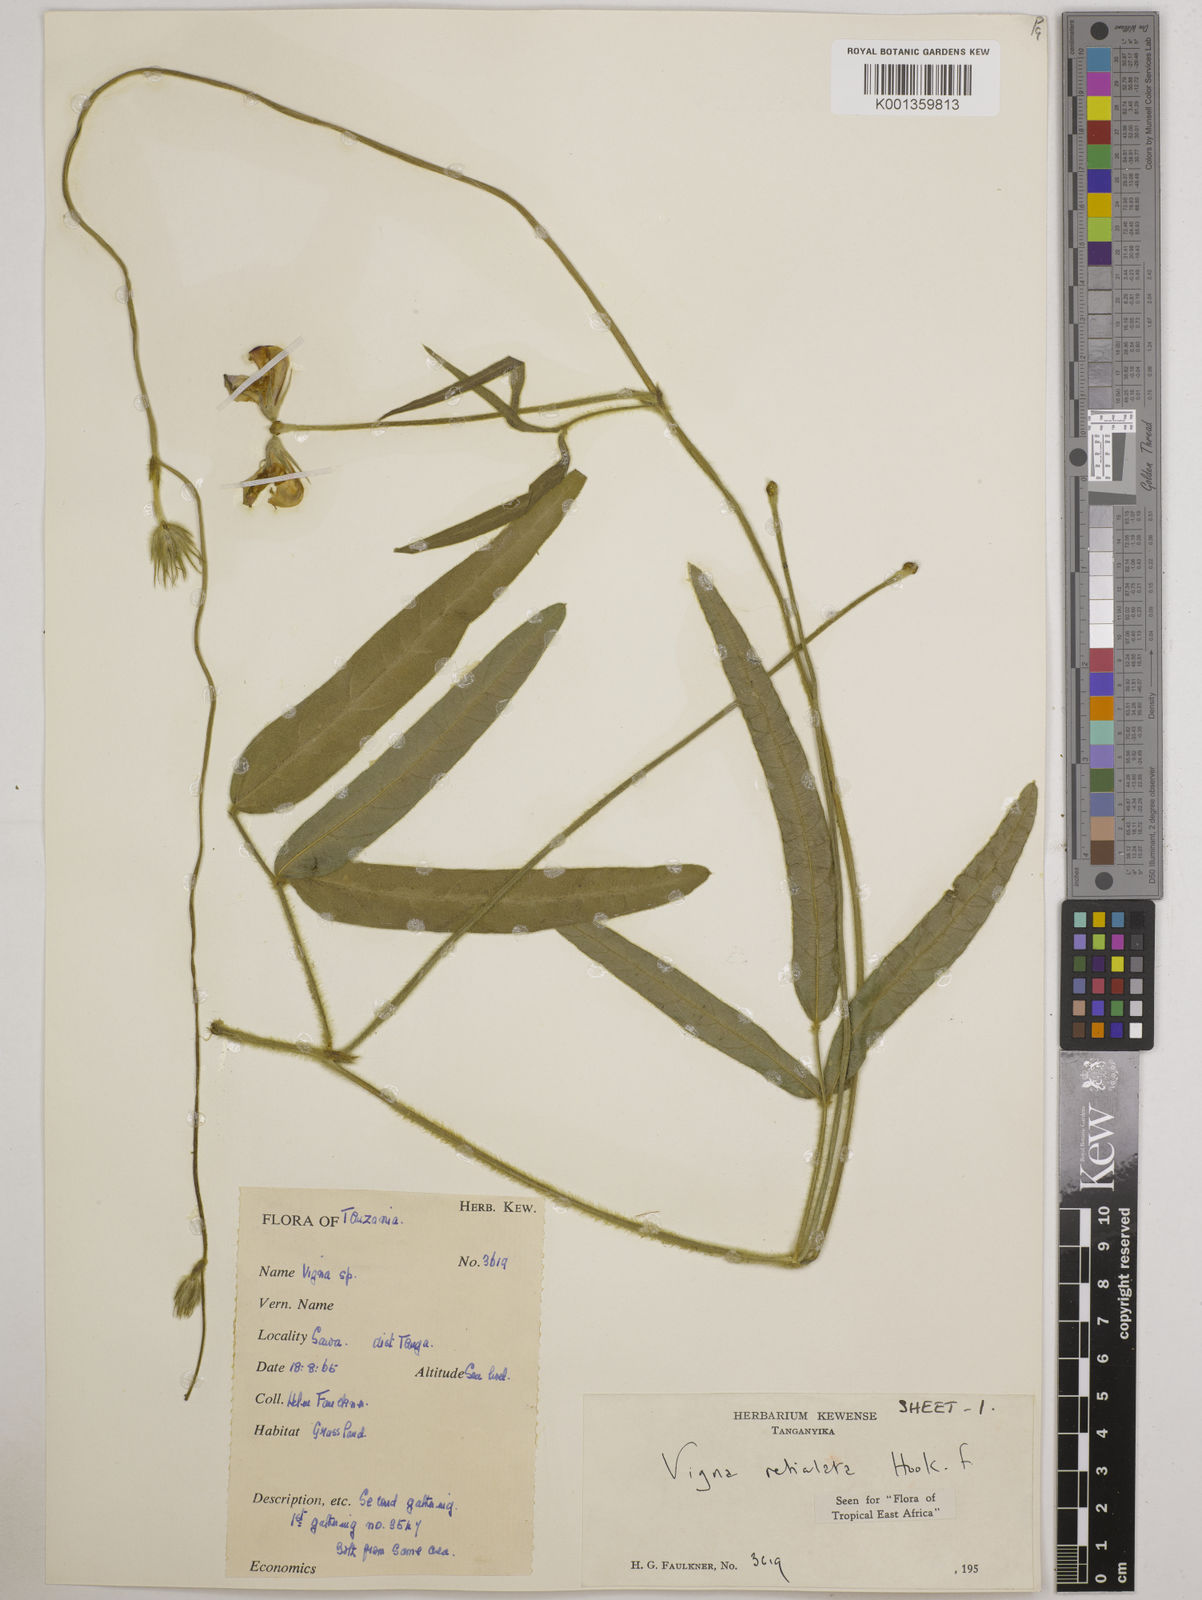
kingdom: Plantae
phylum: Tracheophyta
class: Magnoliopsida
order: Fabales
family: Fabaceae
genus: Vigna
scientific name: Vigna reticulata
